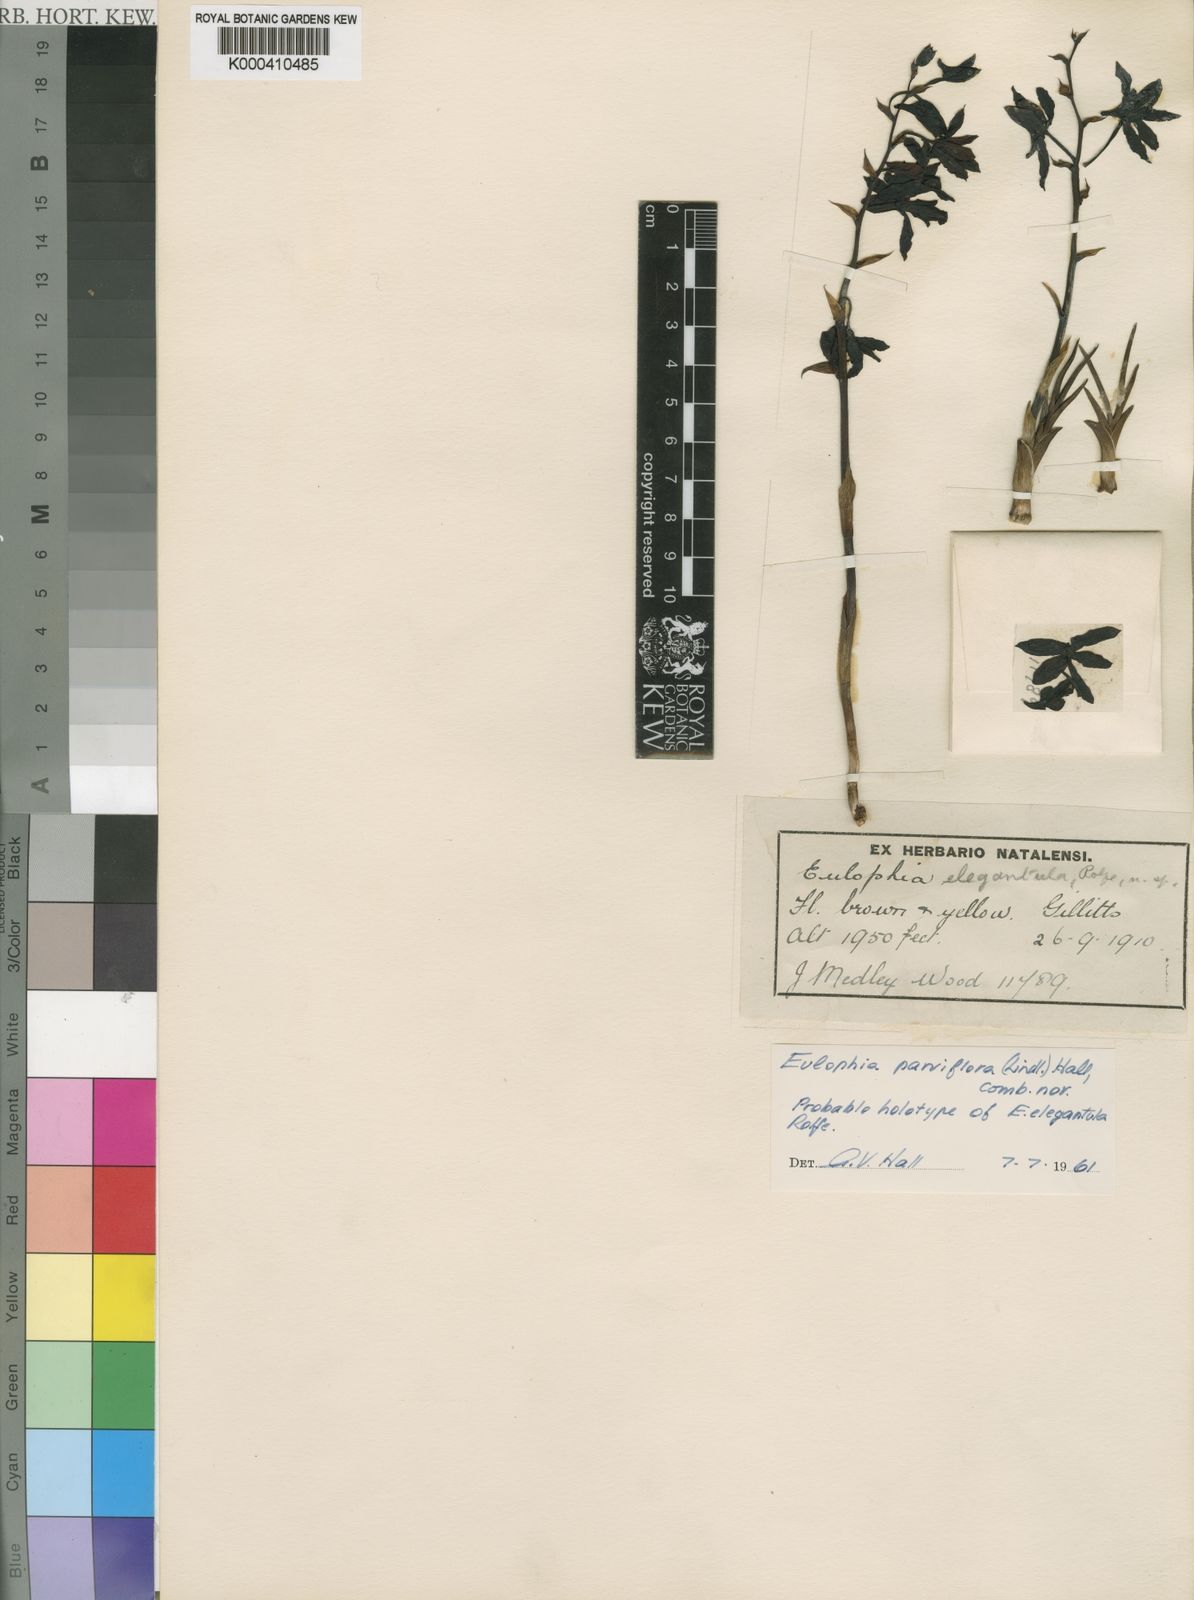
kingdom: Plantae
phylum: Tracheophyta
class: Liliopsida
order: Asparagales
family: Orchidaceae
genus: Eulophia
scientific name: Eulophia parviflora
